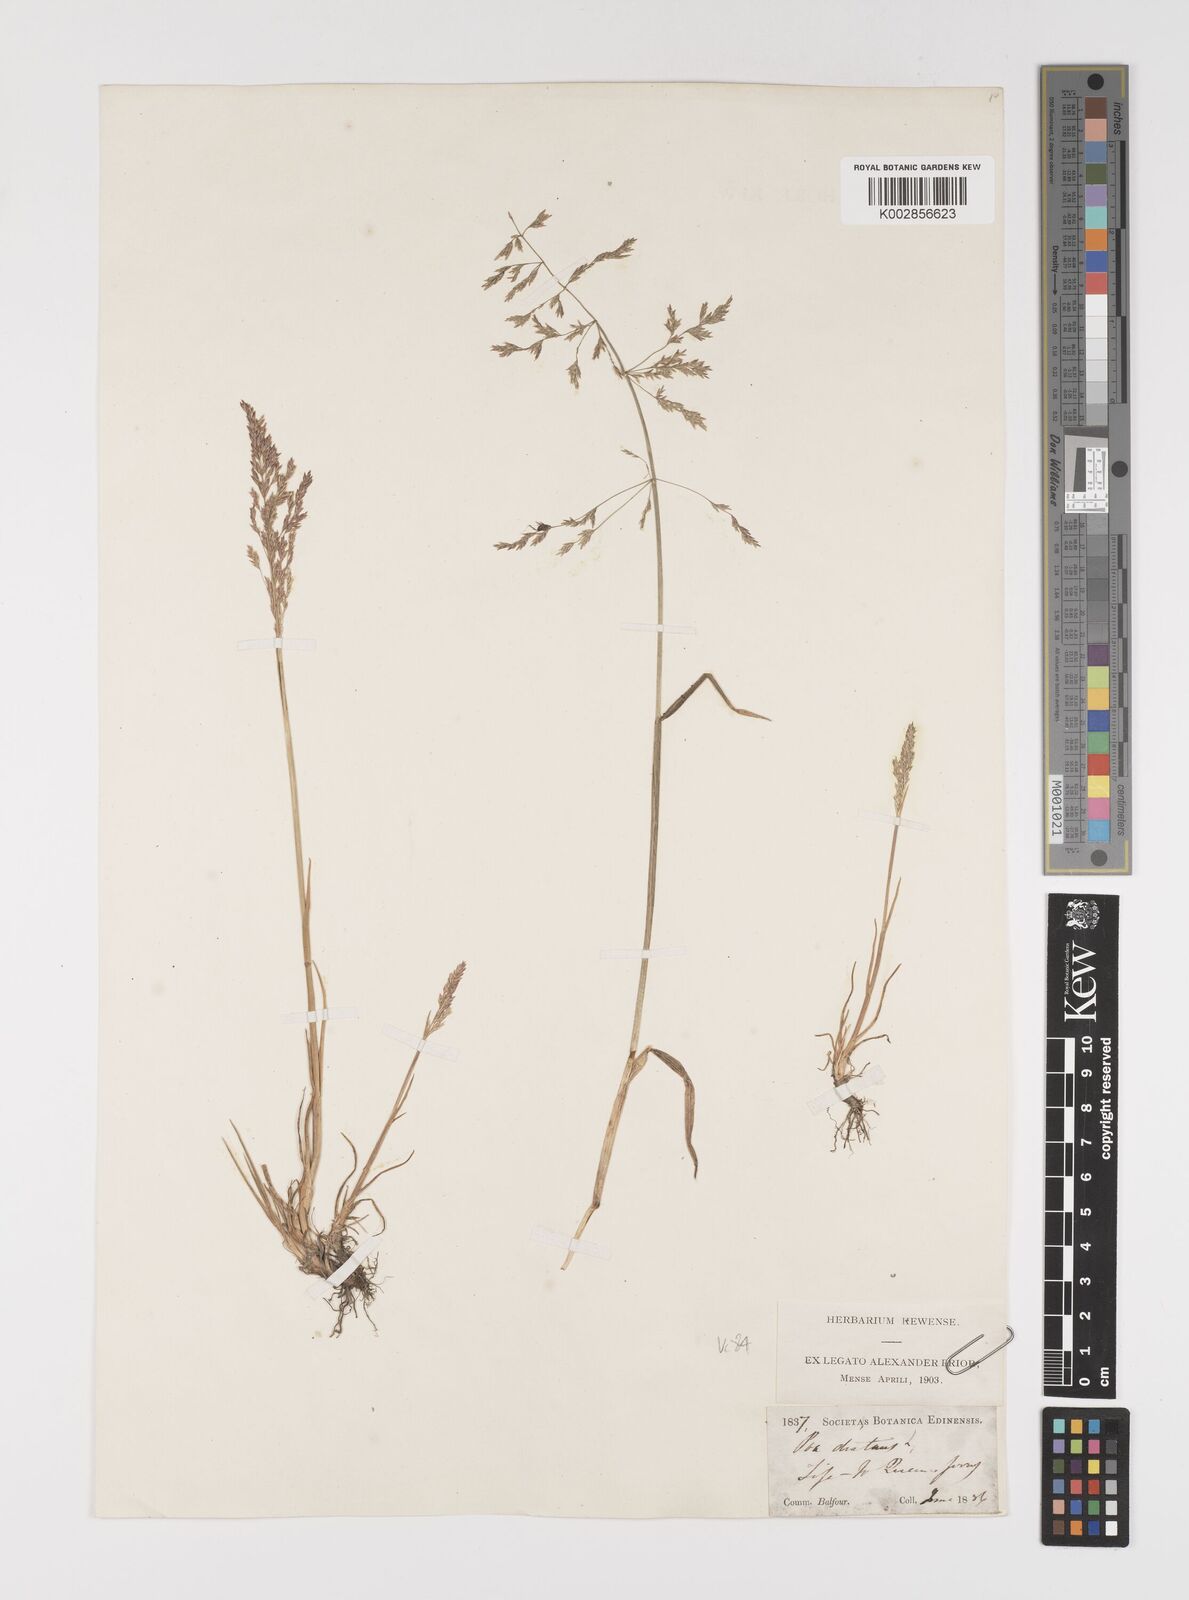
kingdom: Plantae
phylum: Tracheophyta
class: Liliopsida
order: Poales
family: Poaceae
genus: Puccinellia
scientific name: Puccinellia distans
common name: Weeping alkaligrass
